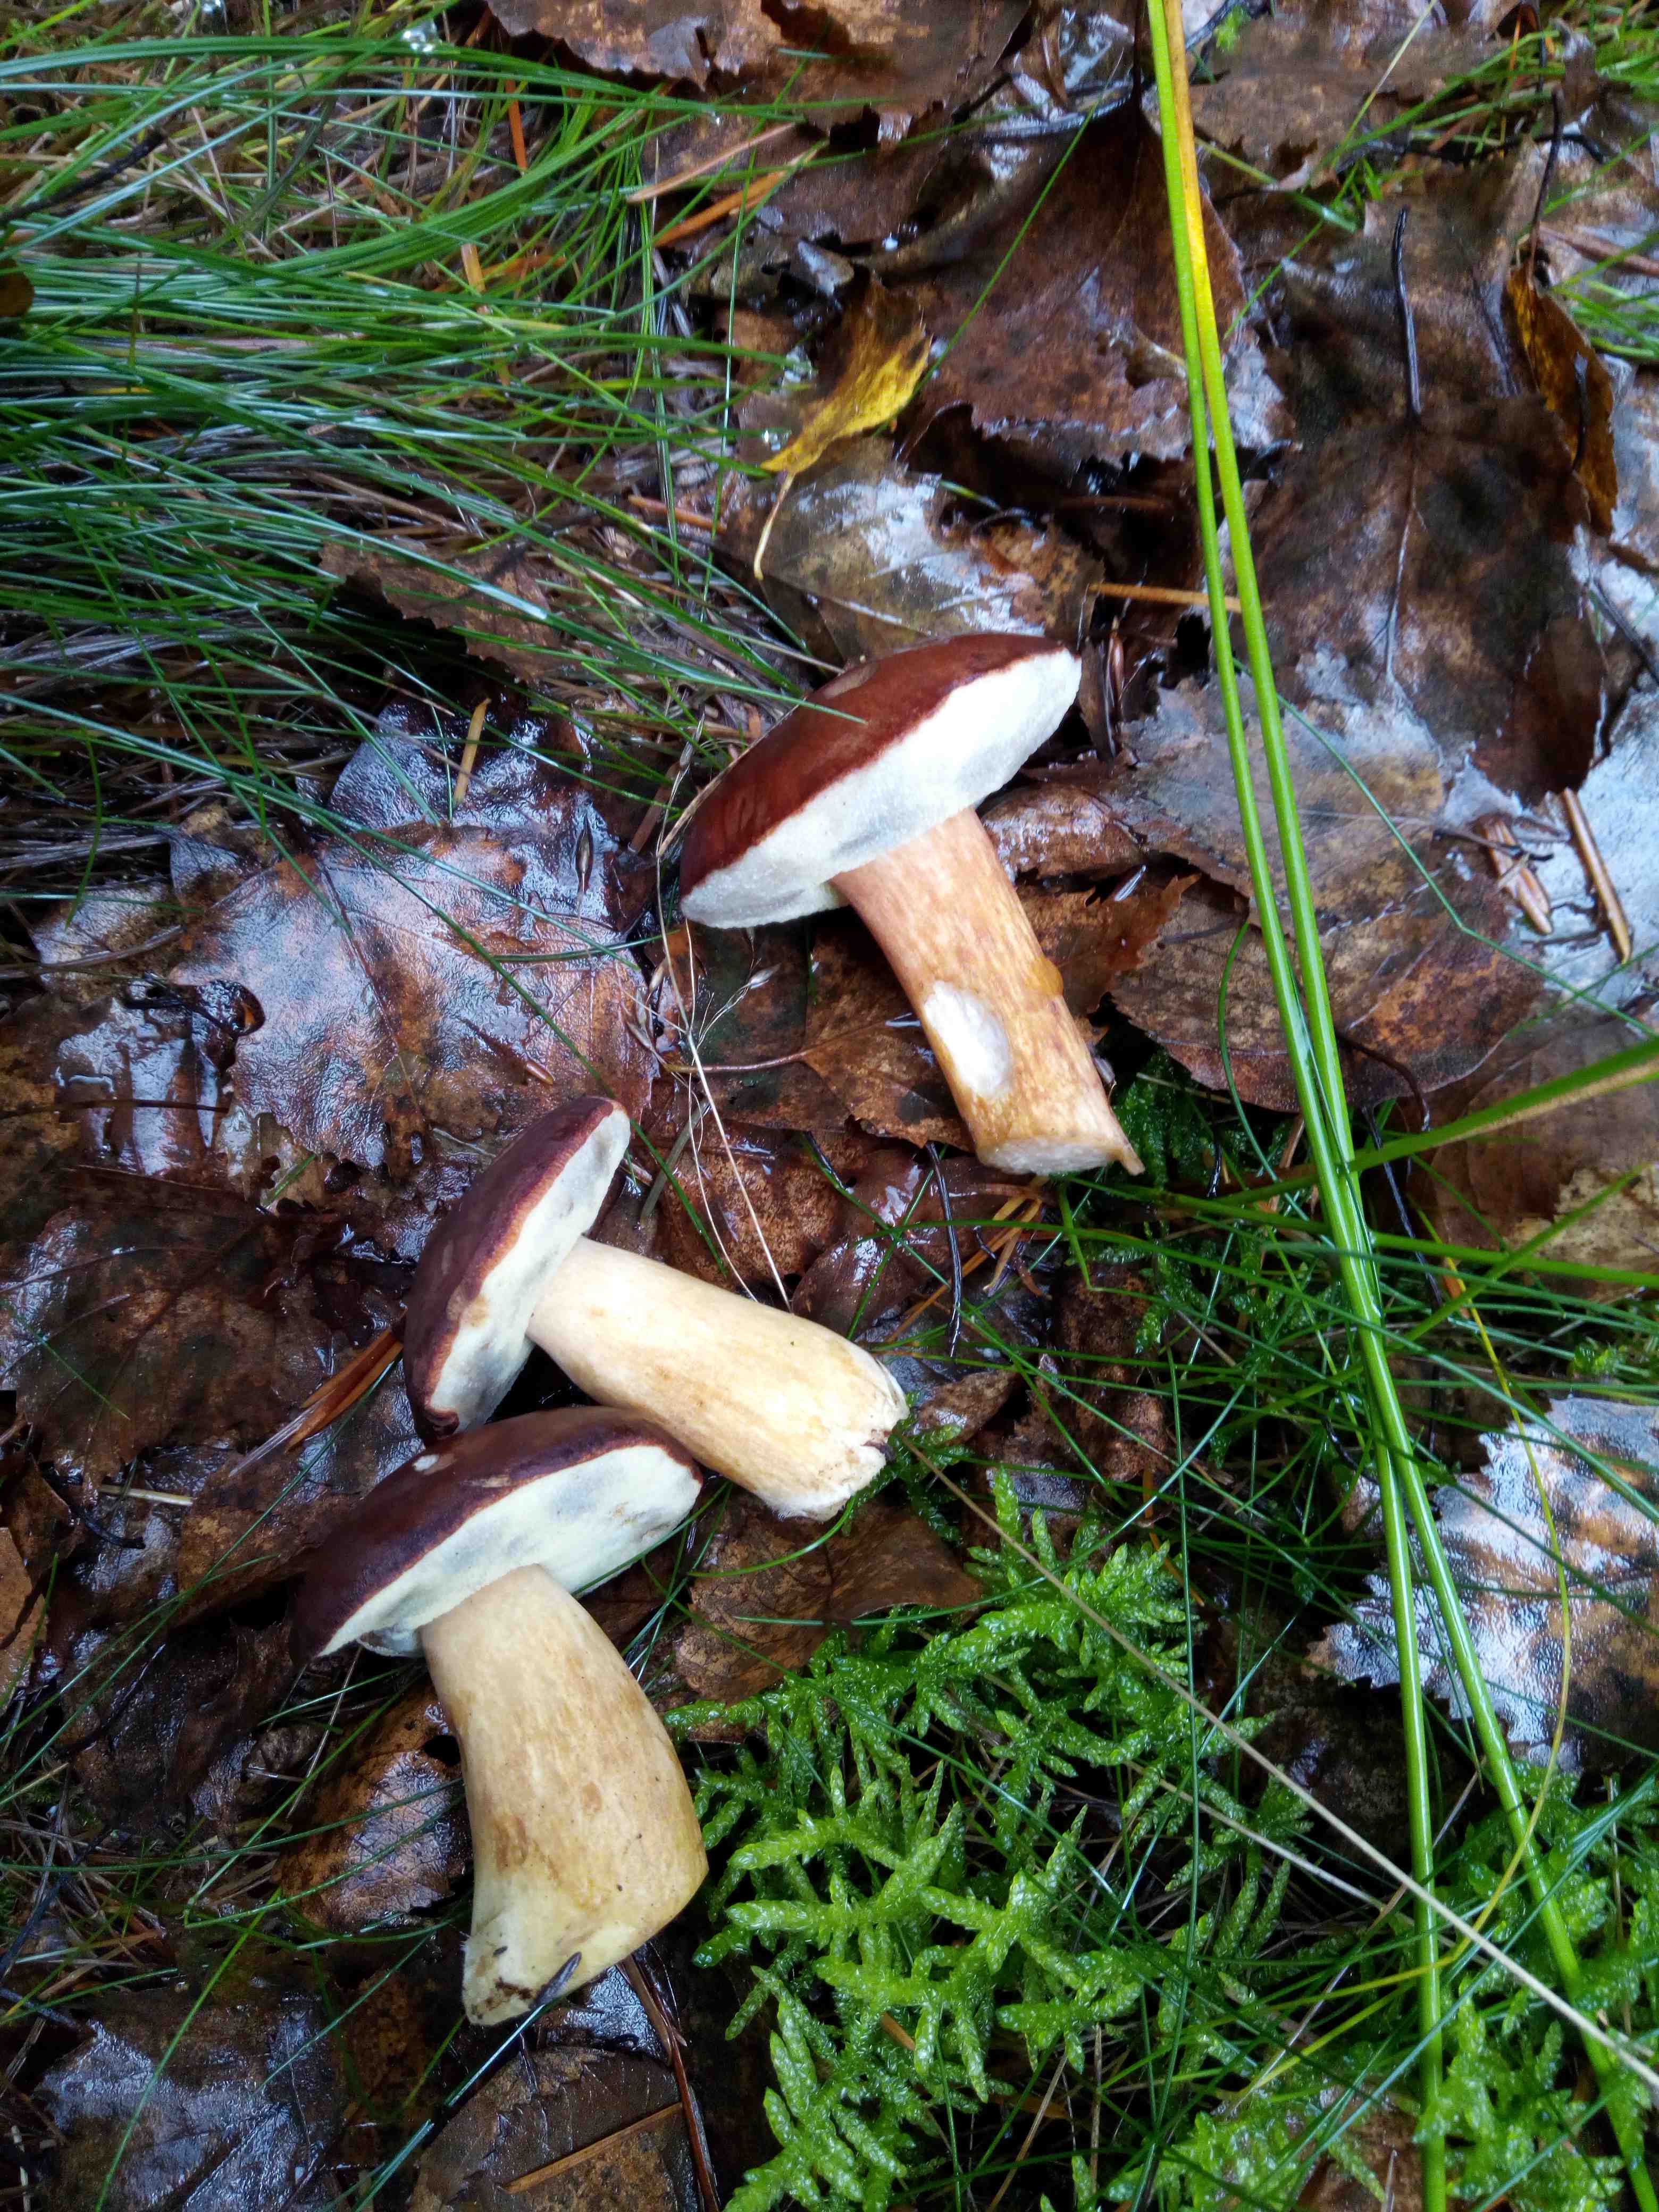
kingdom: Fungi
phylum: Basidiomycota
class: Agaricomycetes
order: Boletales
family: Boletaceae
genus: Imleria
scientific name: Imleria badia
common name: brunstokket rørhat
